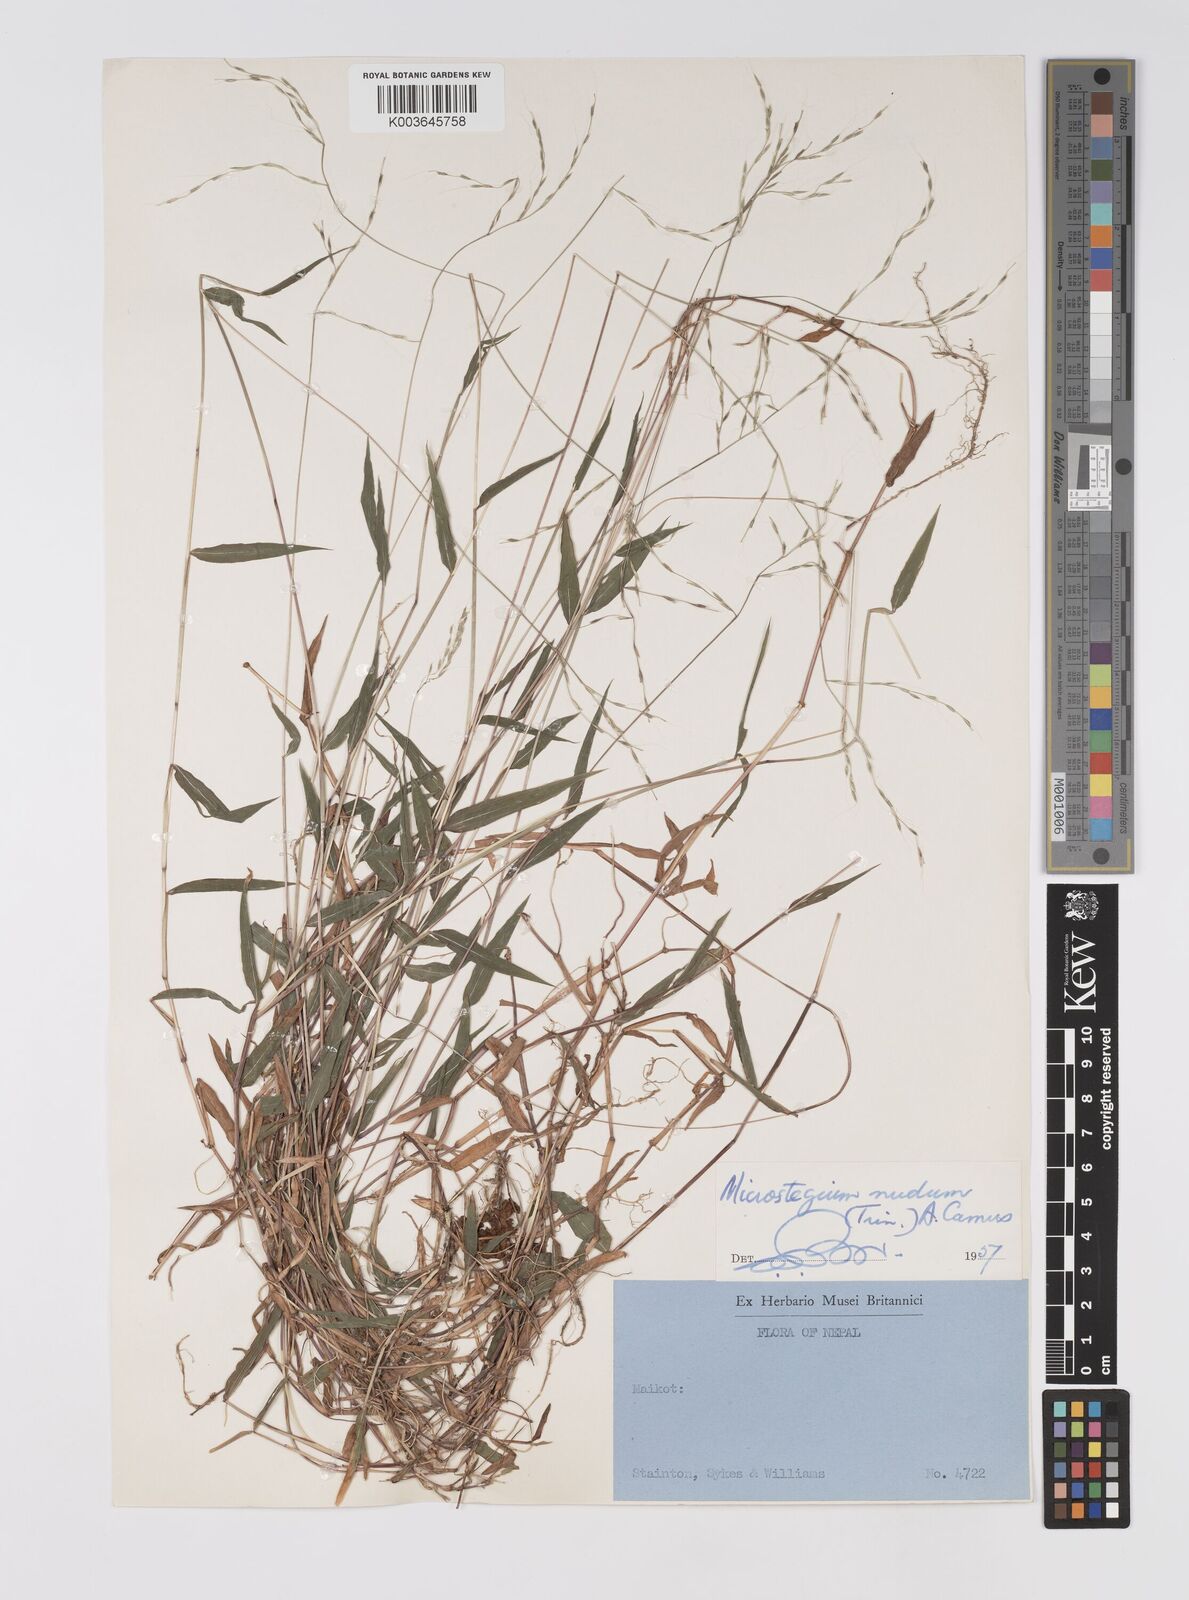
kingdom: Plantae
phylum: Tracheophyta
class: Liliopsida
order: Poales
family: Poaceae
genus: Microstegium
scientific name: Microstegium nudum
